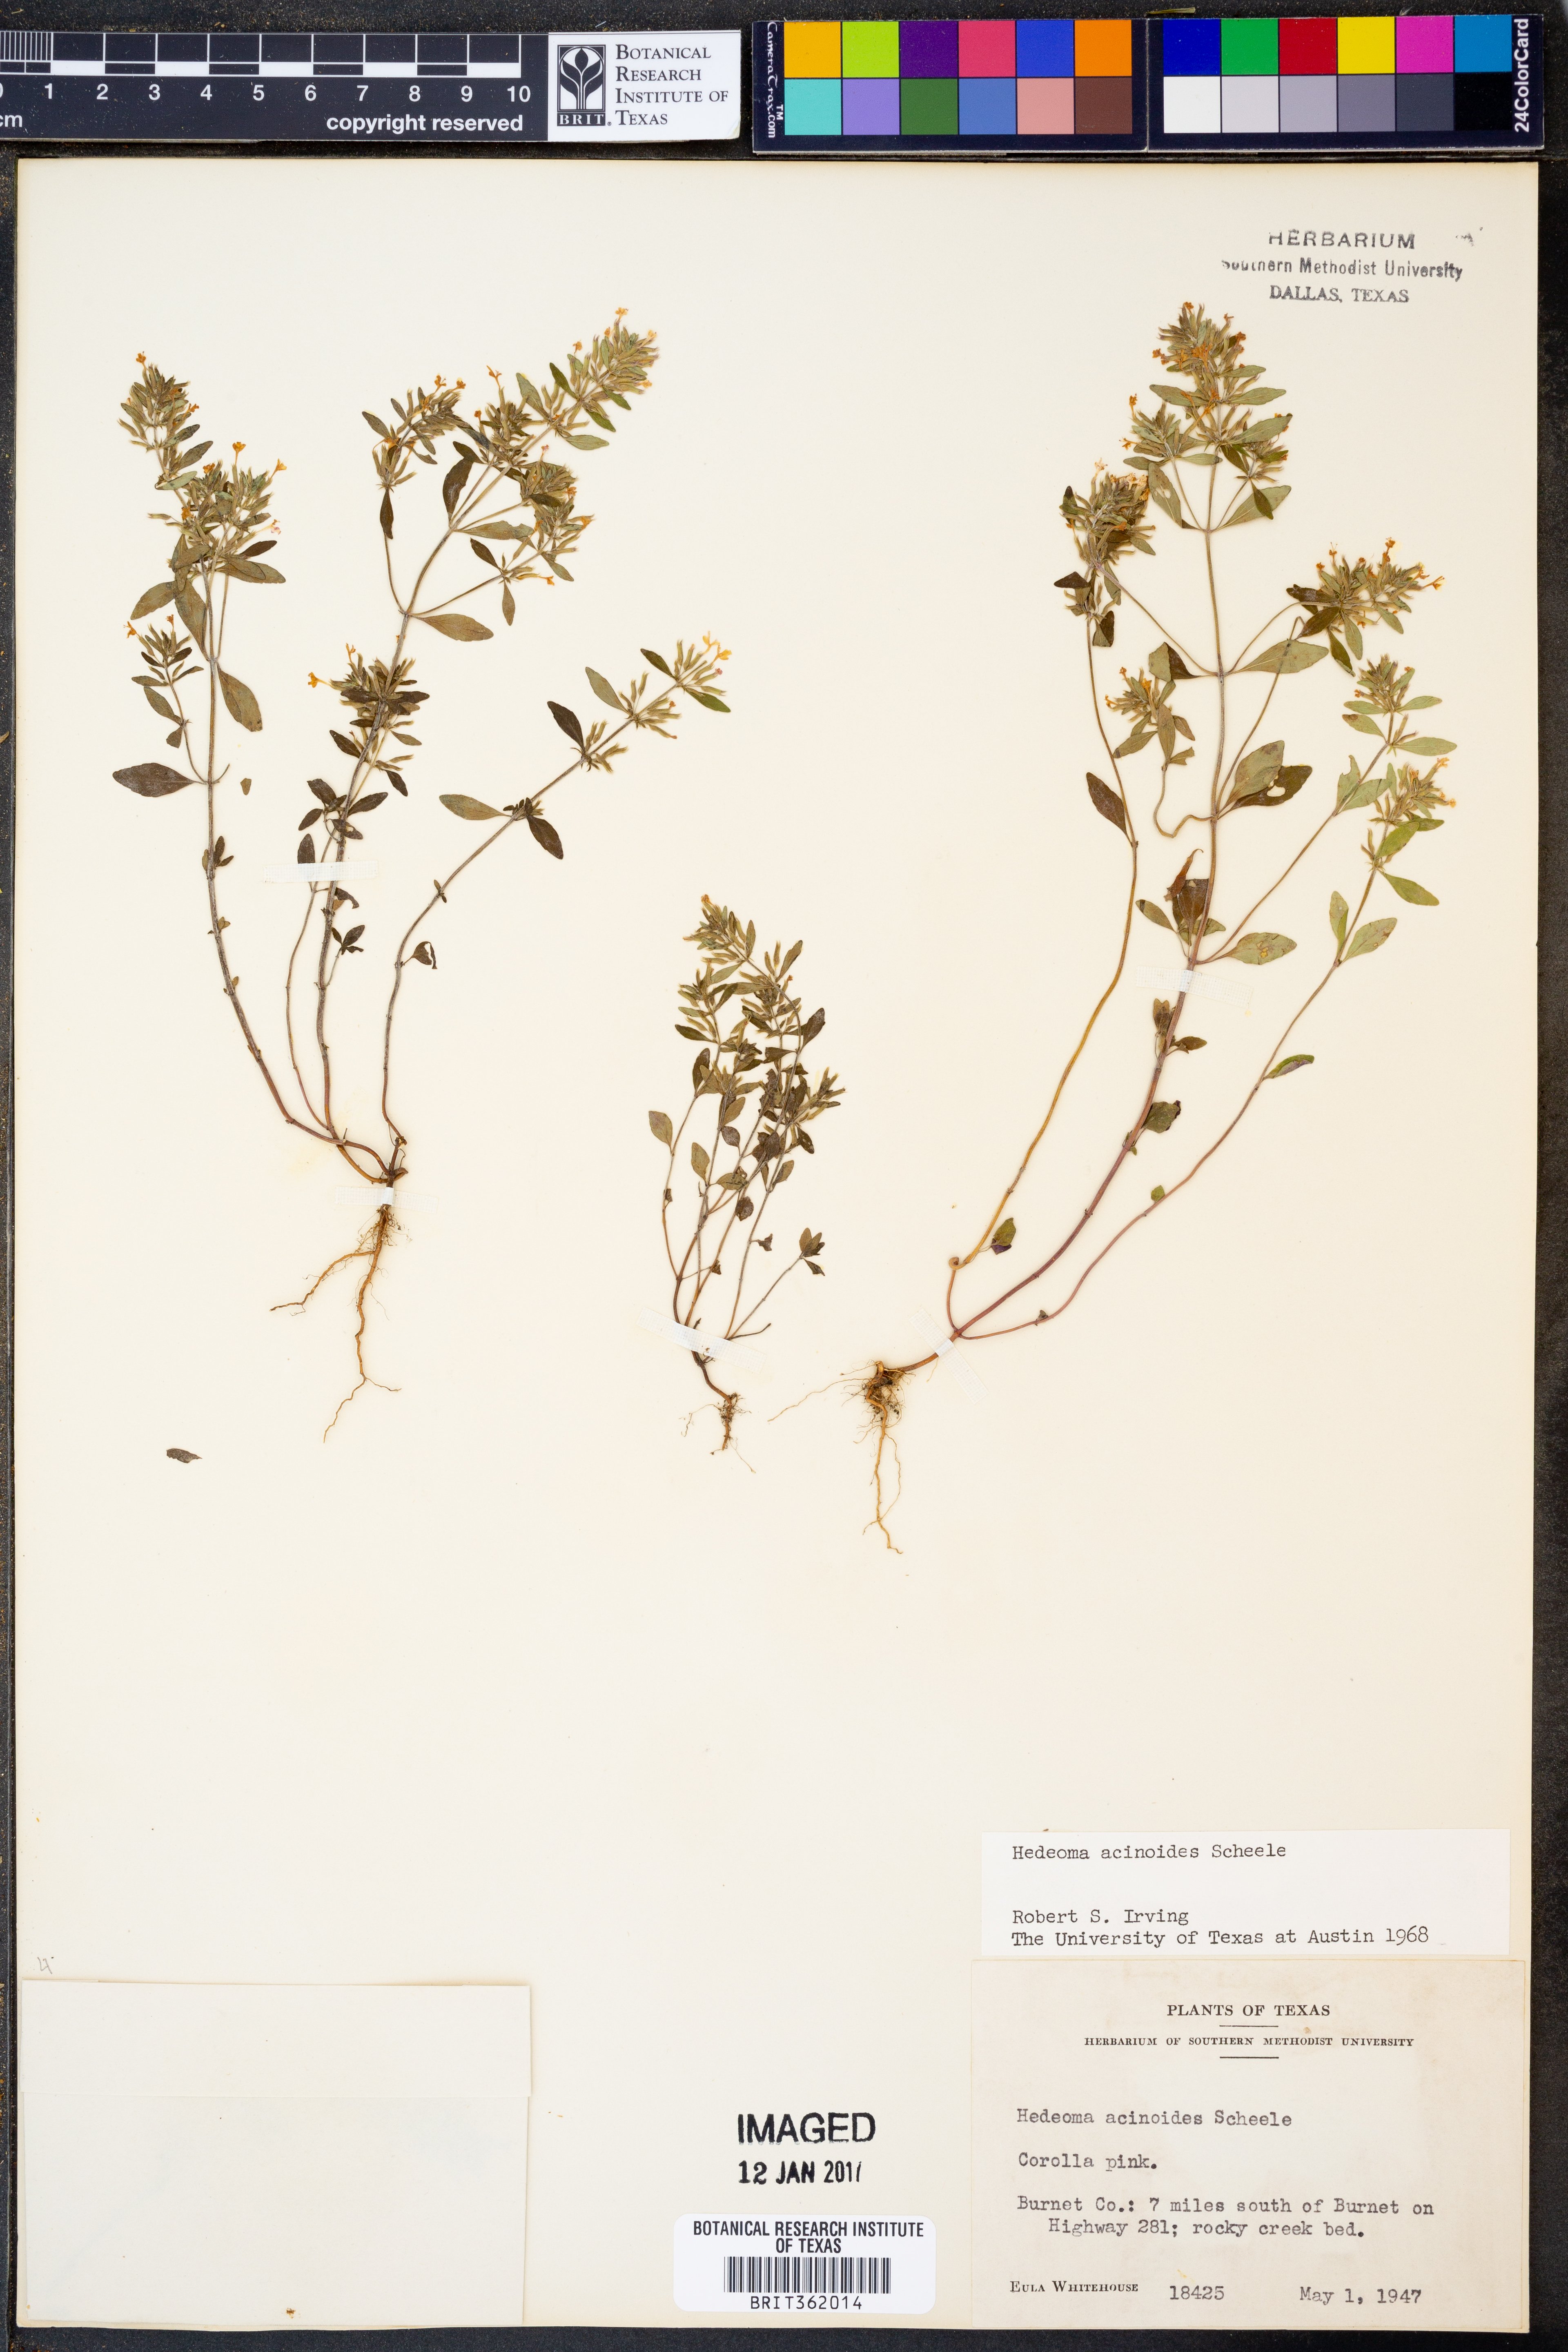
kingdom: Plantae
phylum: Tracheophyta
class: Magnoliopsida
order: Lamiales
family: Lamiaceae
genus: Hedeoma
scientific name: Hedeoma acinoides
